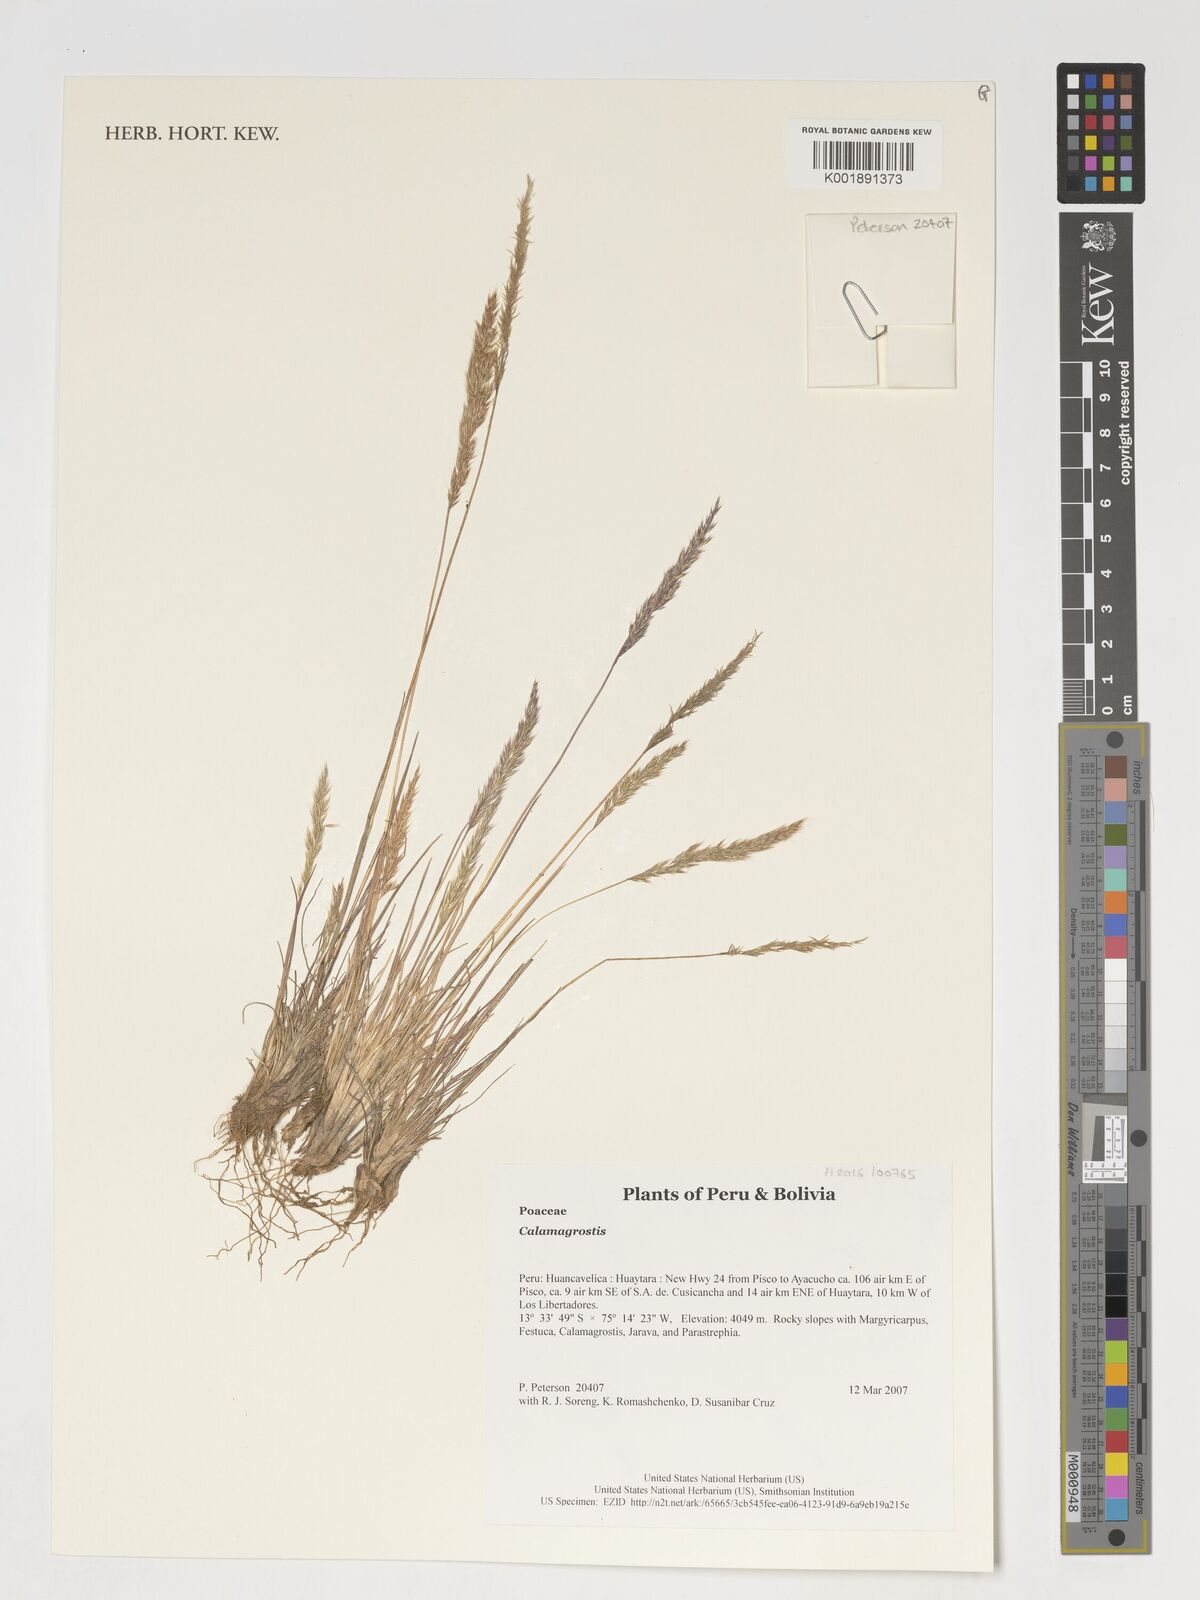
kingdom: Plantae
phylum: Tracheophyta
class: Liliopsida
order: Poales
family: Poaceae
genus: Calamagrostis
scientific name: Calamagrostis
